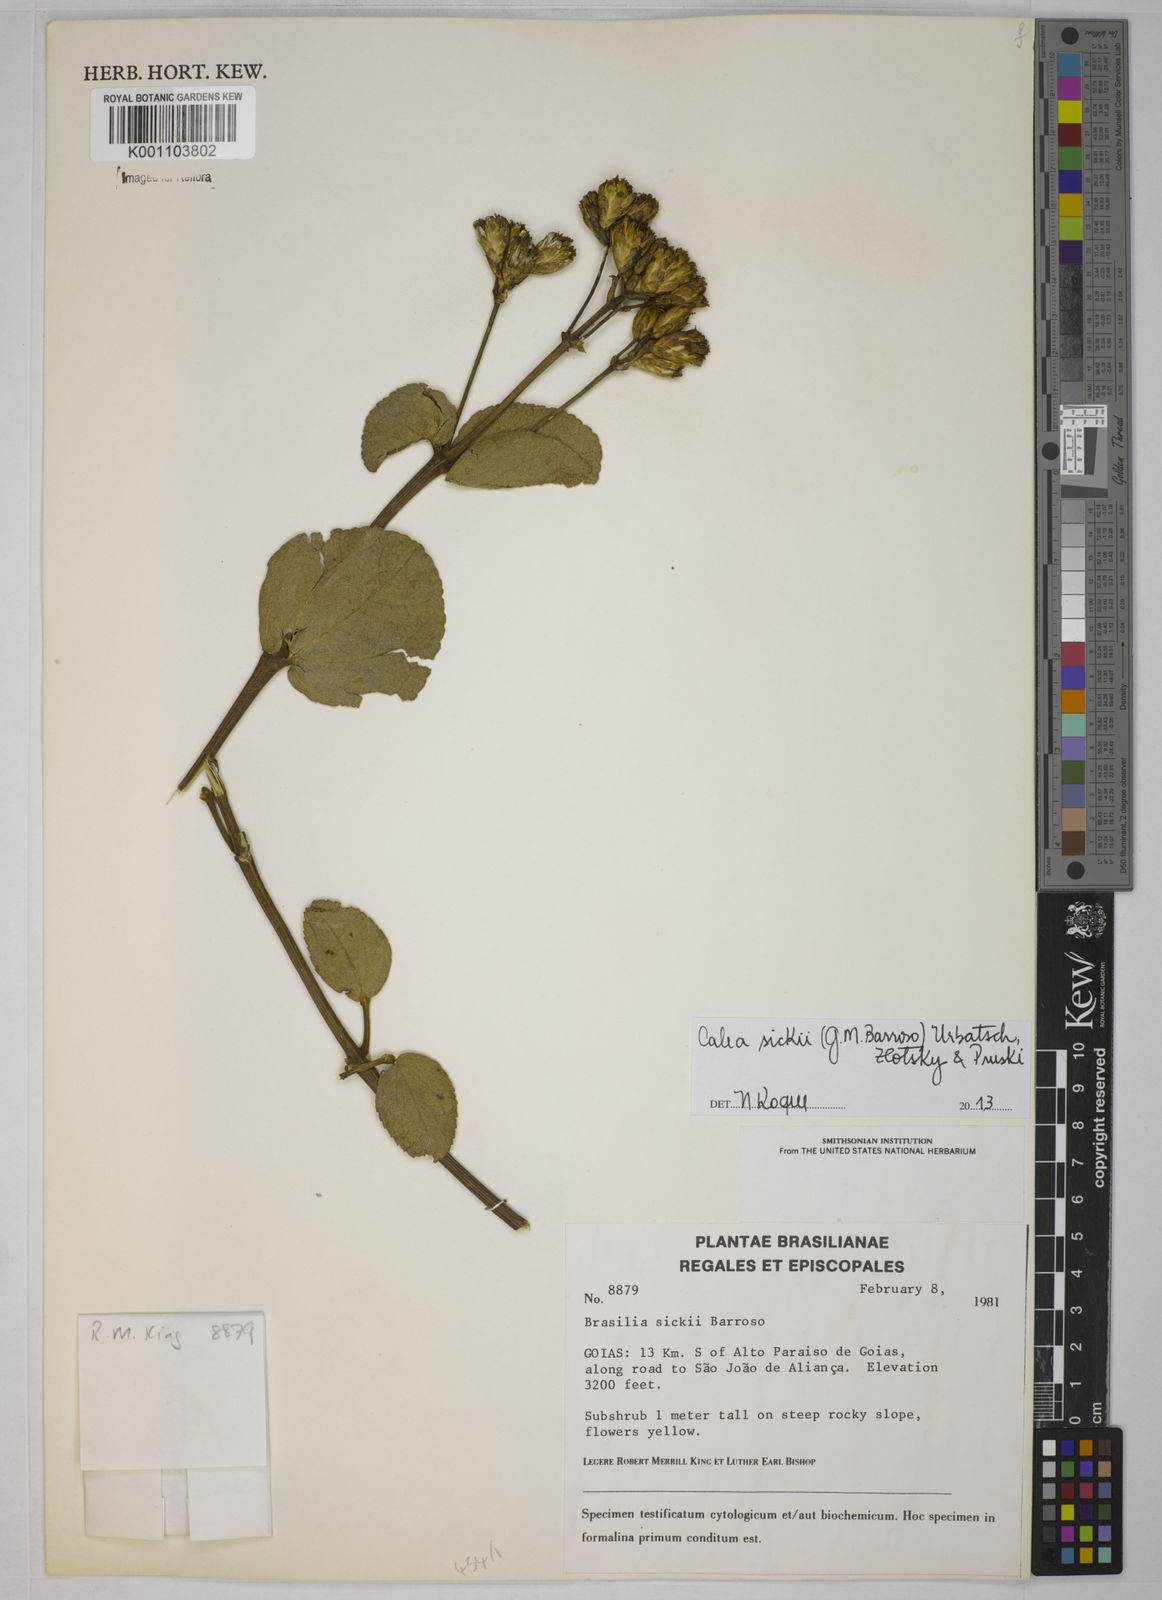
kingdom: Plantae
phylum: Tracheophyta
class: Magnoliopsida
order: Asterales
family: Asteraceae
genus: Calea
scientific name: Calea sickii
